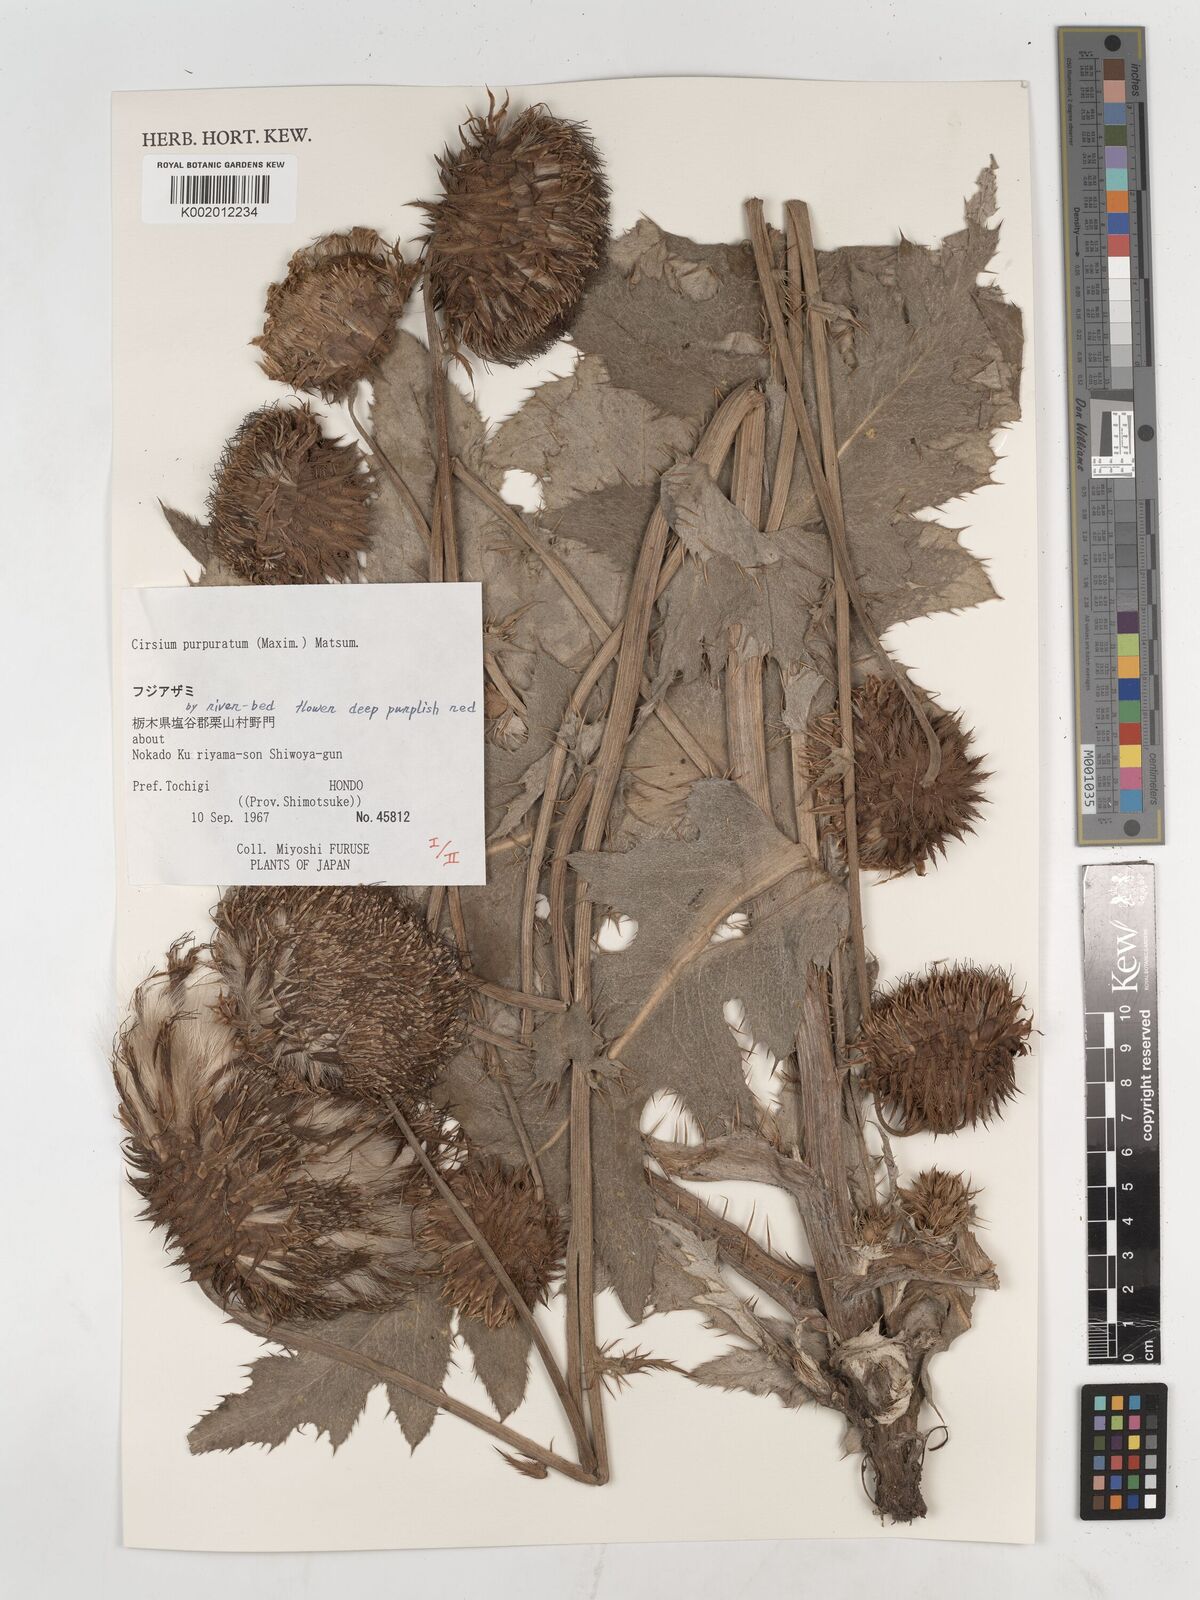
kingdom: Plantae
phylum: Tracheophyta
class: Magnoliopsida
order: Asterales
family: Asteraceae
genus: Cirsium
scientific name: Cirsium purpuratum
